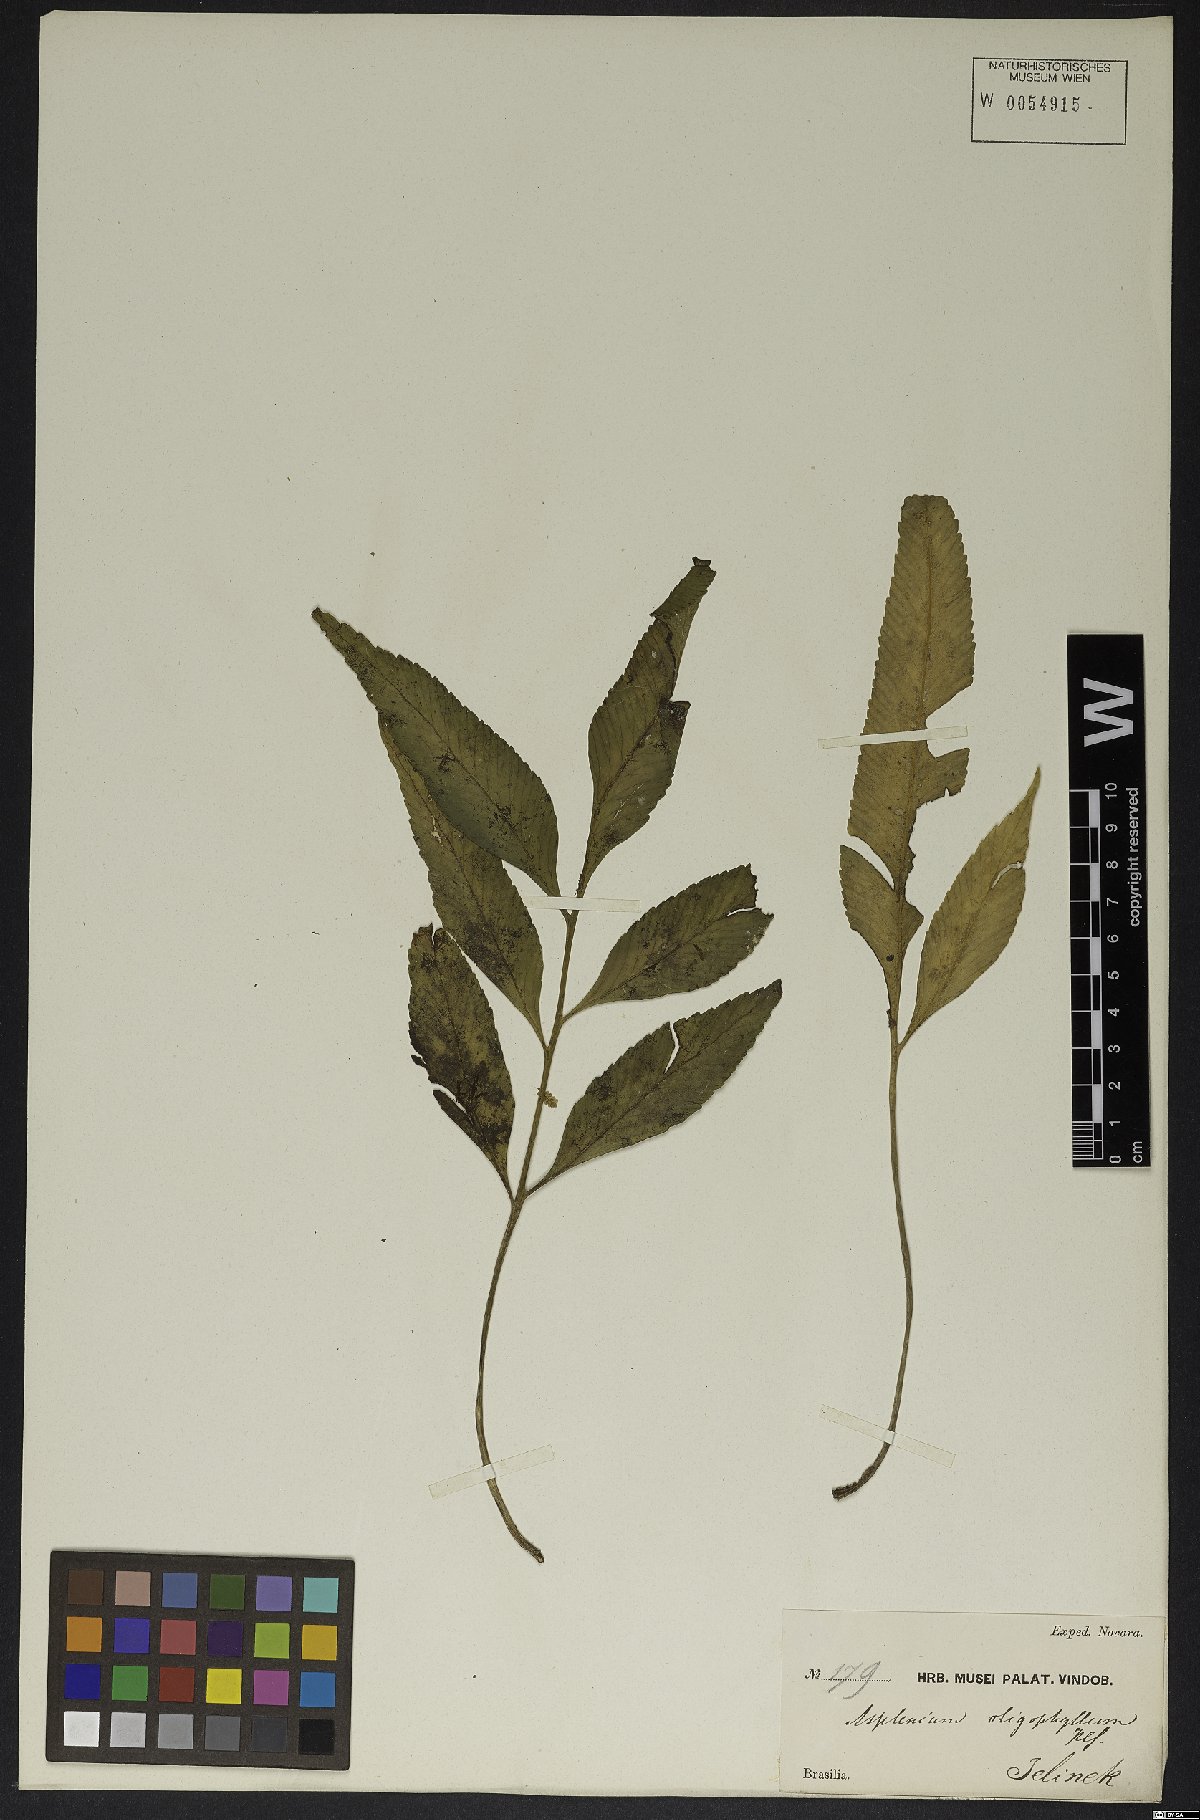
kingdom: Plantae
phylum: Tracheophyta
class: Polypodiopsida
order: Polypodiales
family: Aspleniaceae
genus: Asplenium
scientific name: Asplenium oligophyllum
